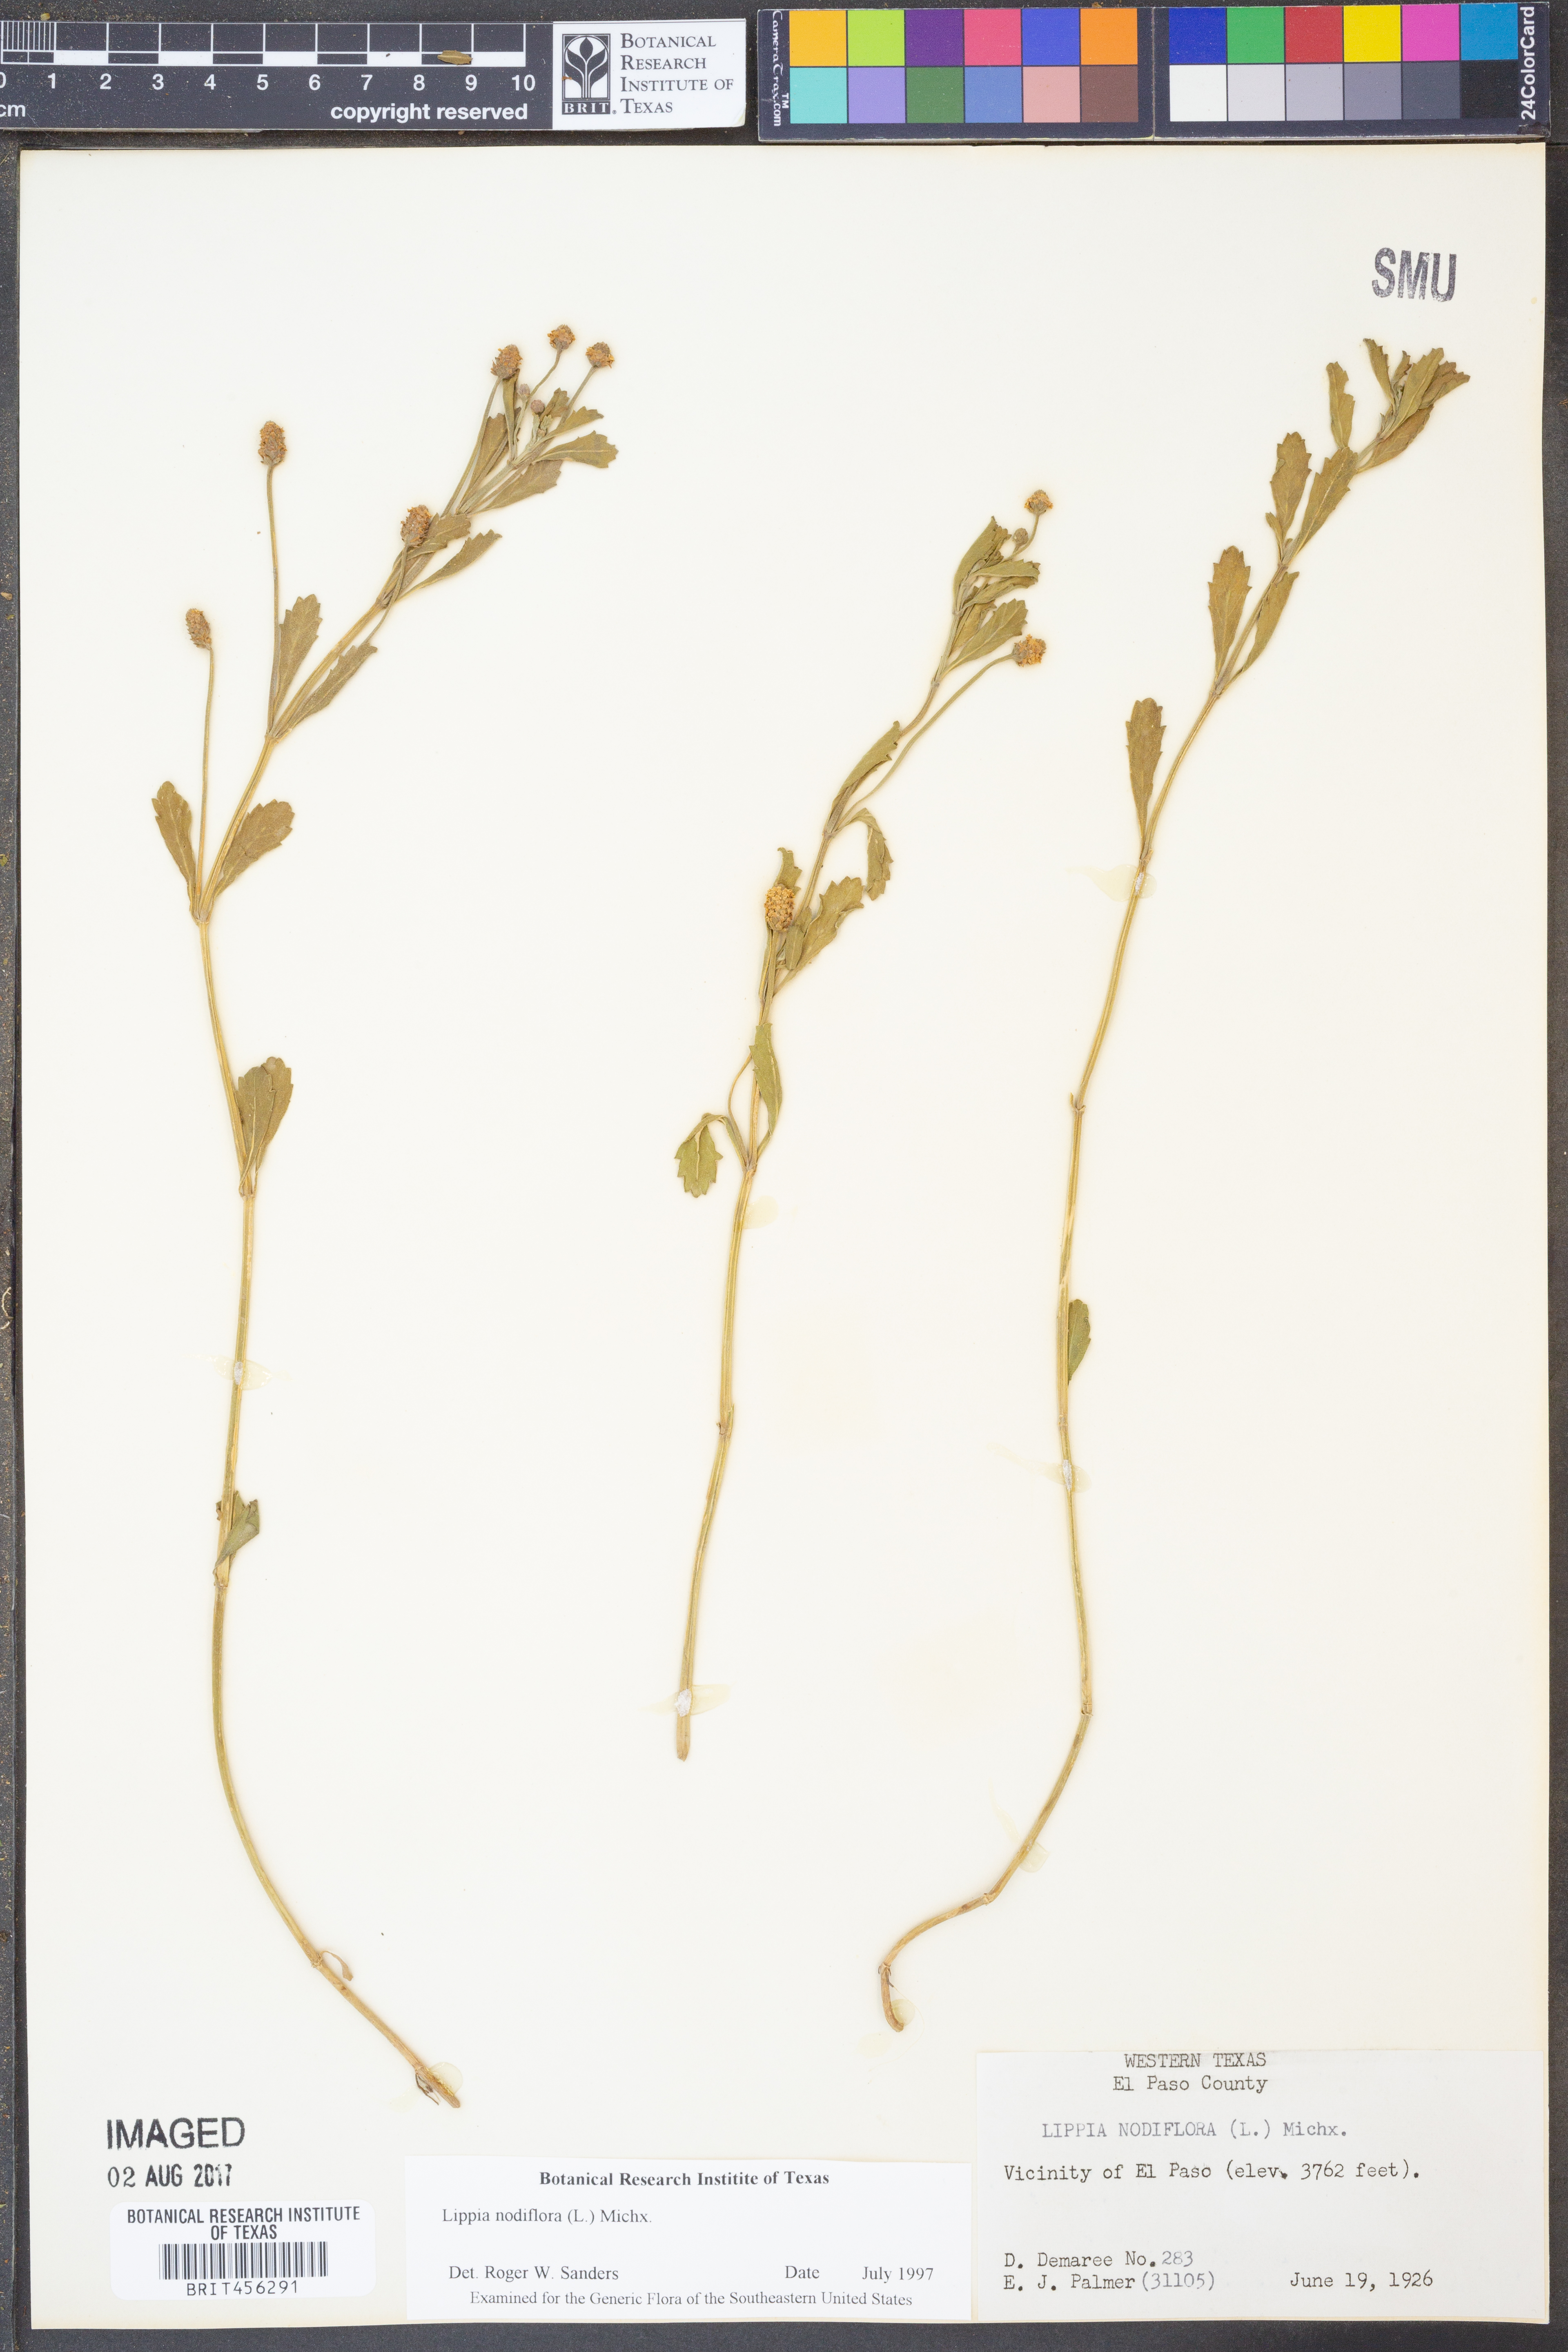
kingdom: Plantae
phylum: Tracheophyta
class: Magnoliopsida
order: Lamiales
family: Verbenaceae
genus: Phyla
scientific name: Phyla nodiflora
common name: Frogfruit
